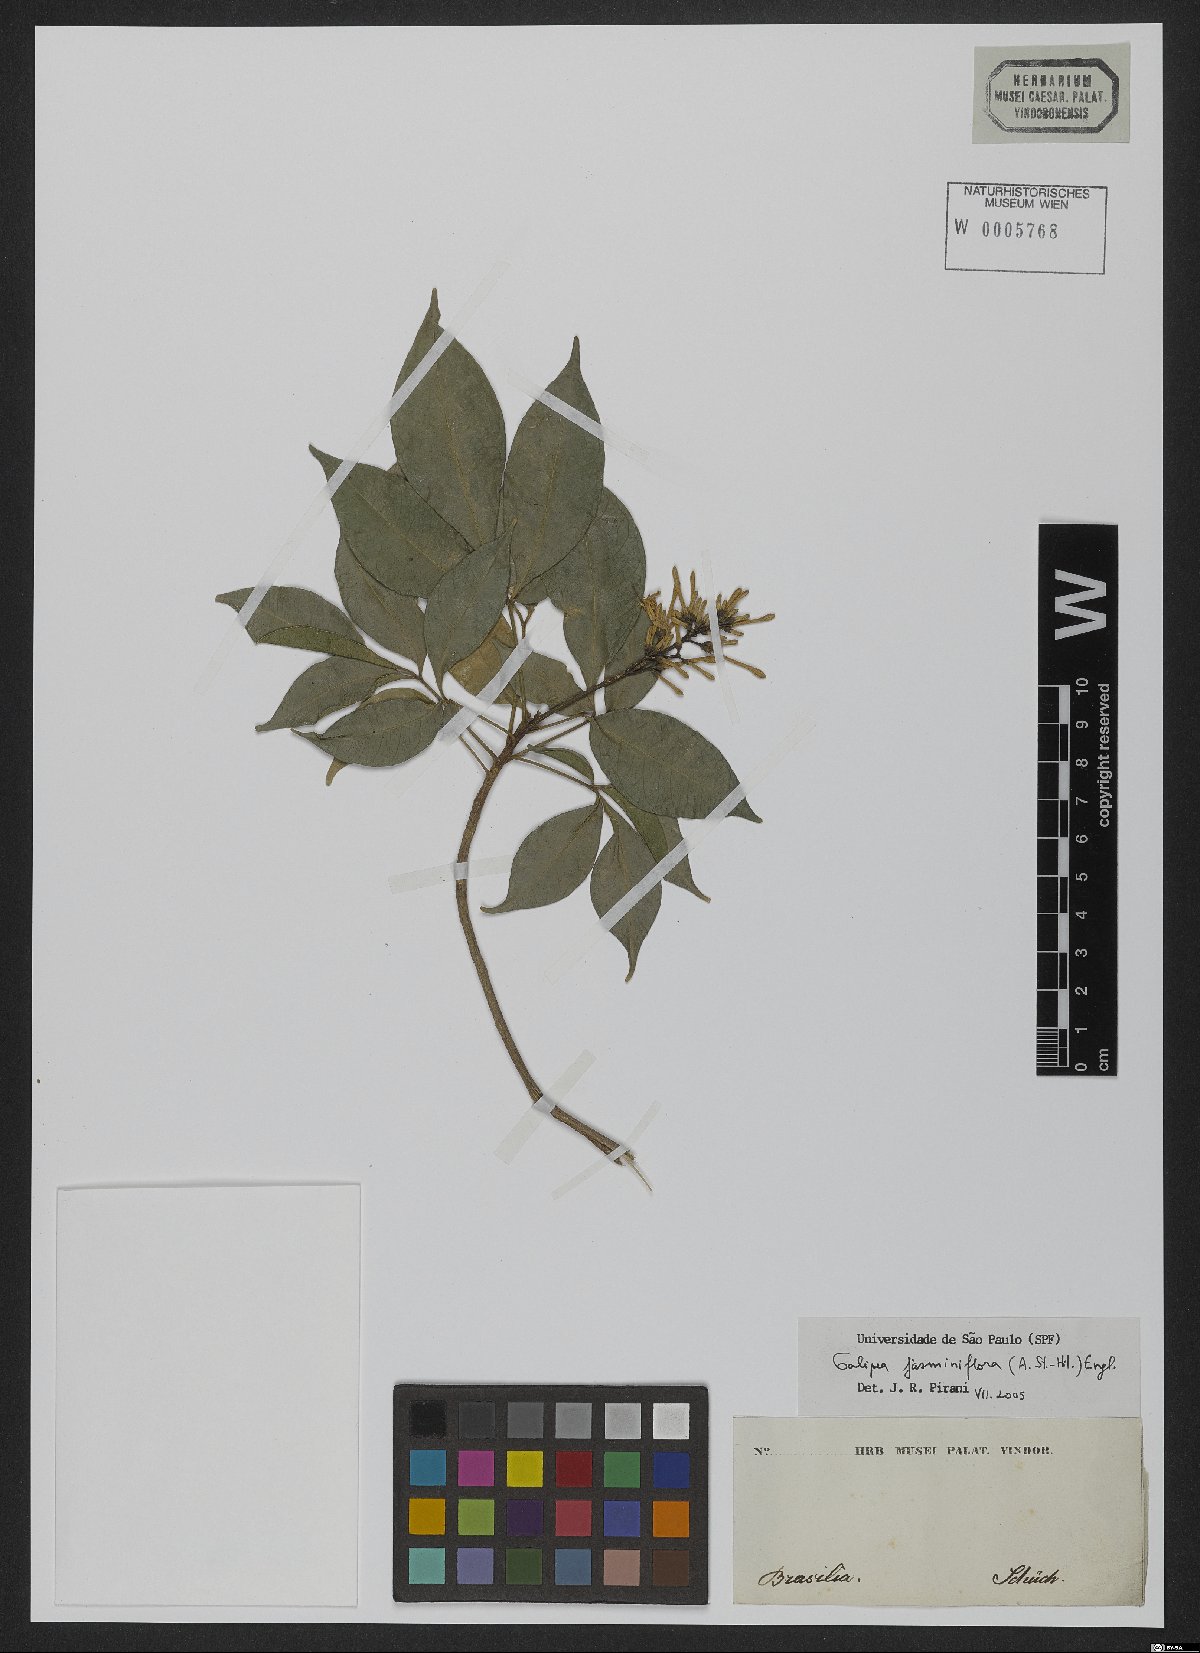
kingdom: Plantae
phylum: Tracheophyta
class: Magnoliopsida
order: Sapindales
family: Rutaceae
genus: Galipea
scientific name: Galipea jasminiflora
